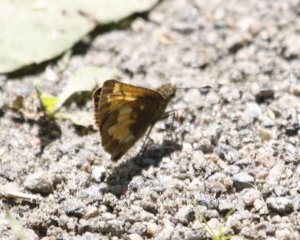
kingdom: Animalia
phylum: Arthropoda
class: Insecta
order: Lepidoptera
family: Hesperiidae
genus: Lon
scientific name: Lon hobomok
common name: Hobomok Skipper
